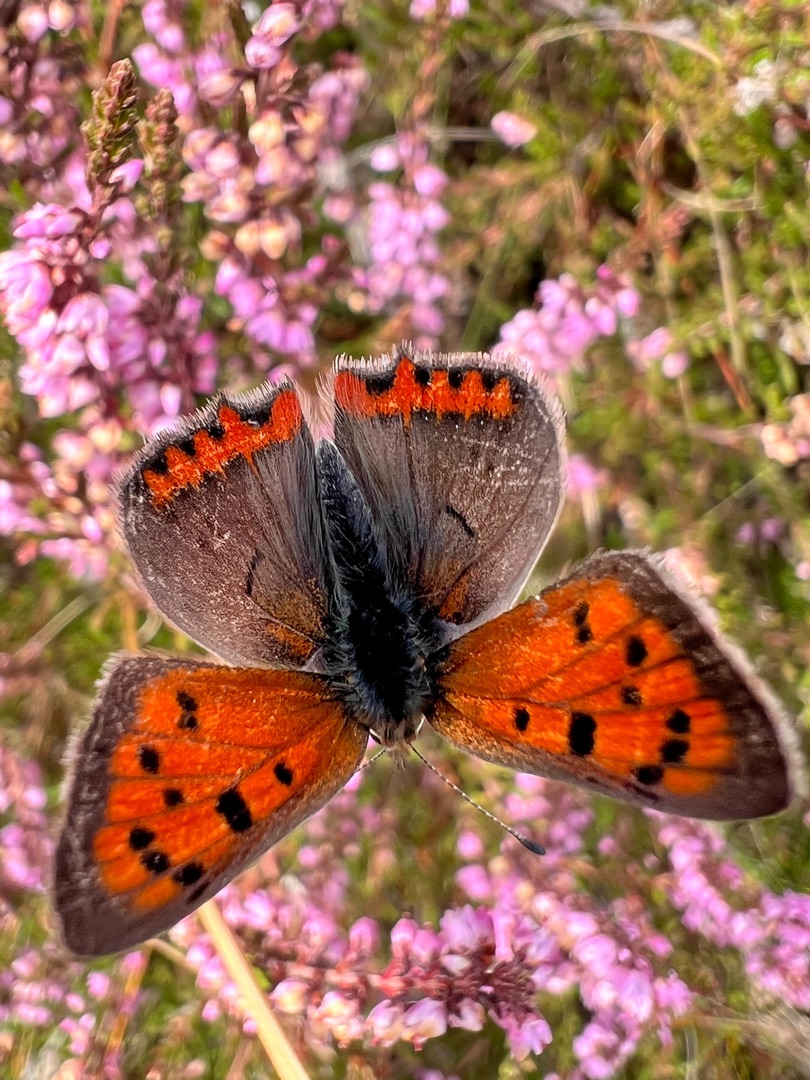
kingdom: Animalia
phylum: Arthropoda
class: Insecta
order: Lepidoptera
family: Lycaenidae
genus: Lycaena
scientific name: Lycaena phlaeas
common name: Lille ildfugl
